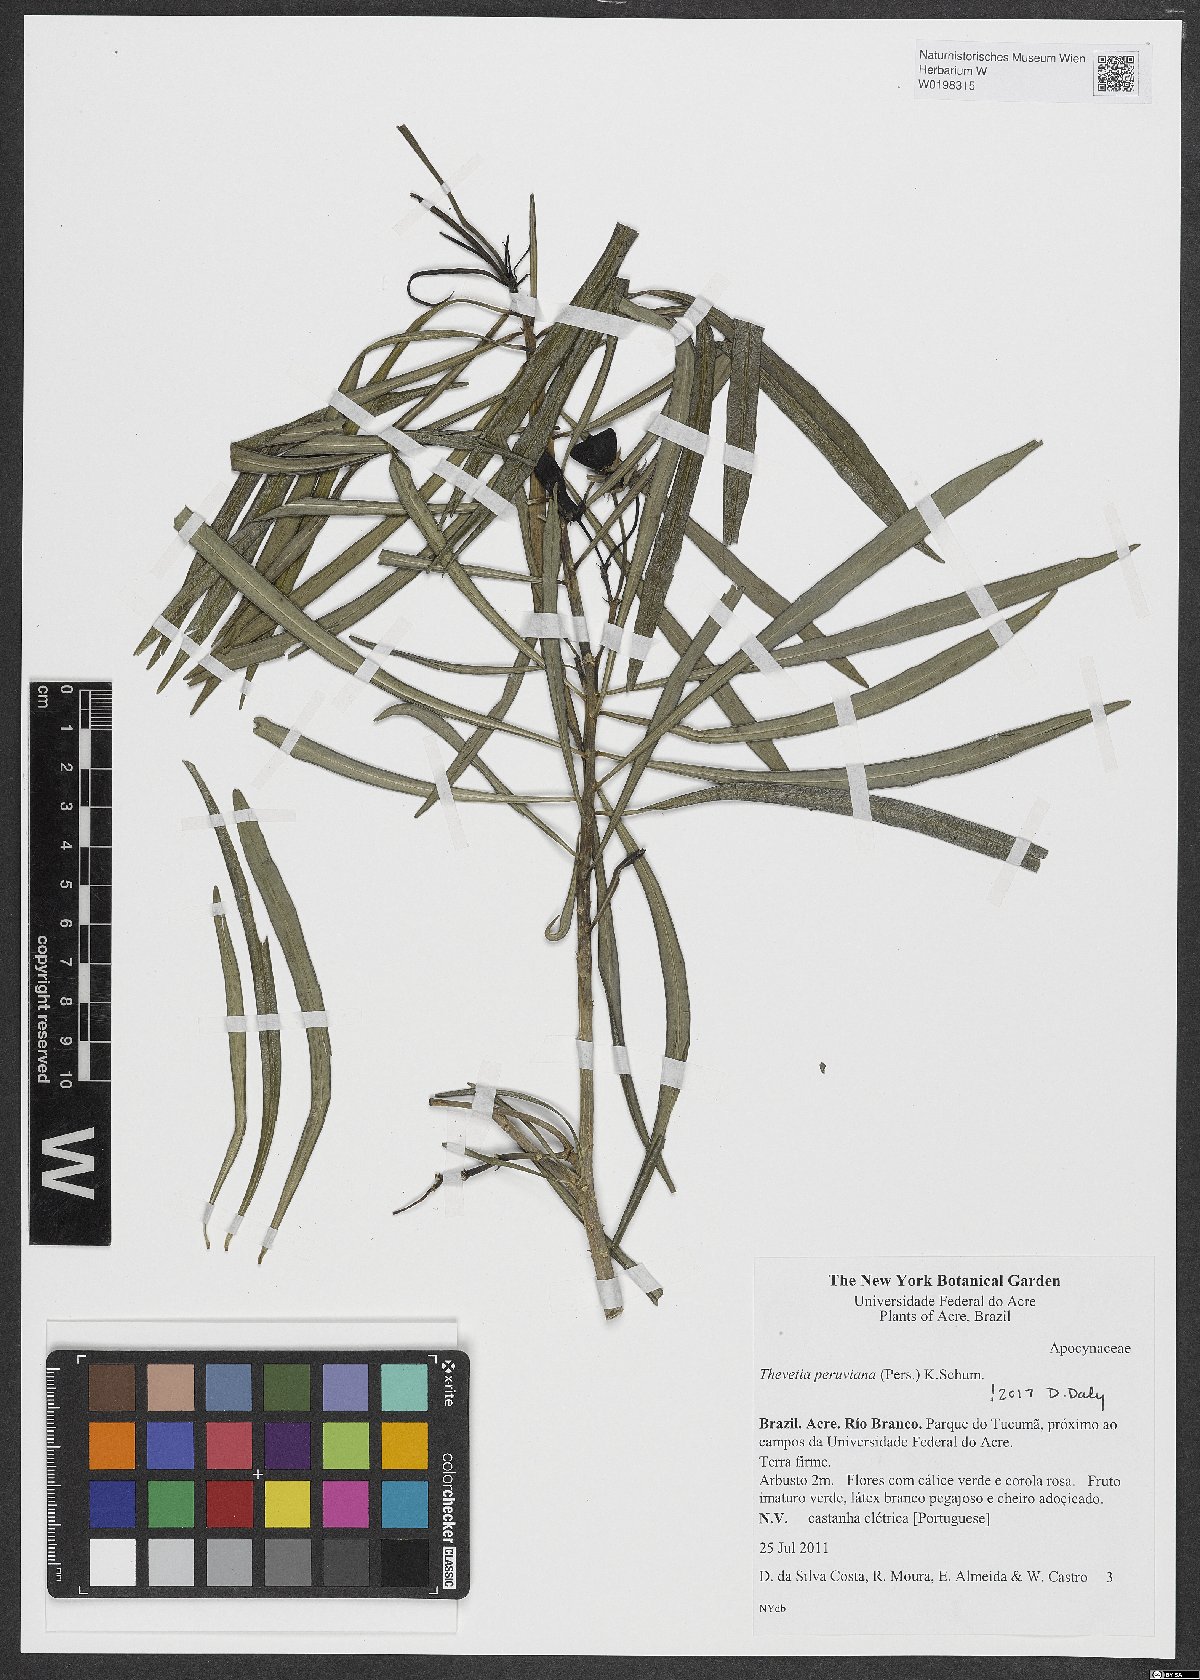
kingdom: Plantae
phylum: Tracheophyta
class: Magnoliopsida
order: Gentianales
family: Apocynaceae
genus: Cascabela
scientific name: Cascabela thevetia
